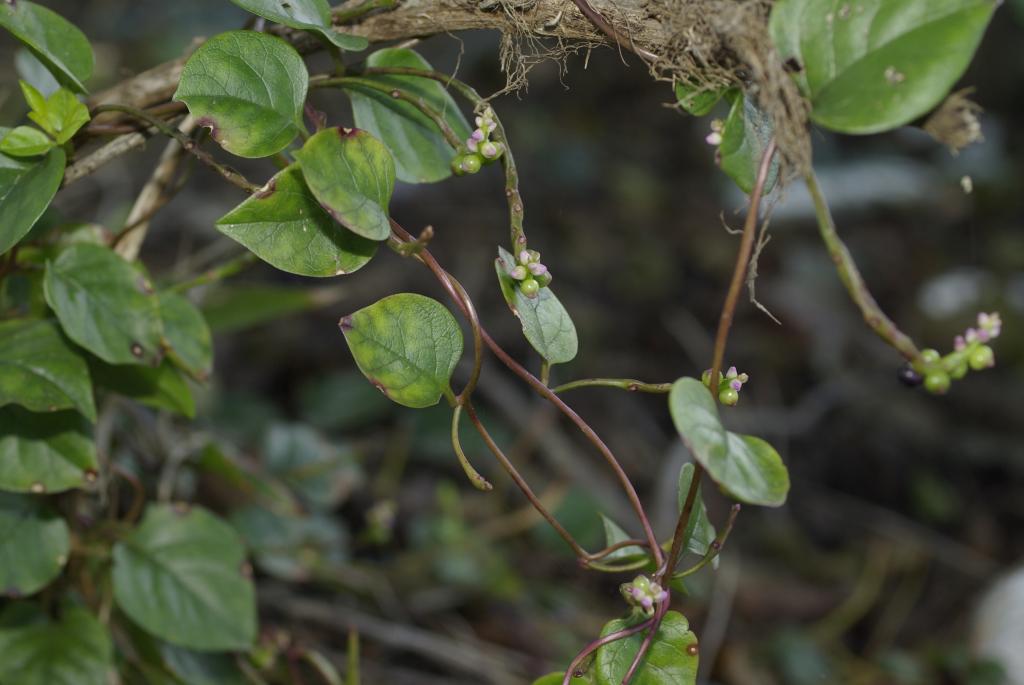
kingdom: Plantae
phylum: Tracheophyta
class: Magnoliopsida
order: Caryophyllales
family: Basellaceae
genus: Basella
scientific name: Basella alba
